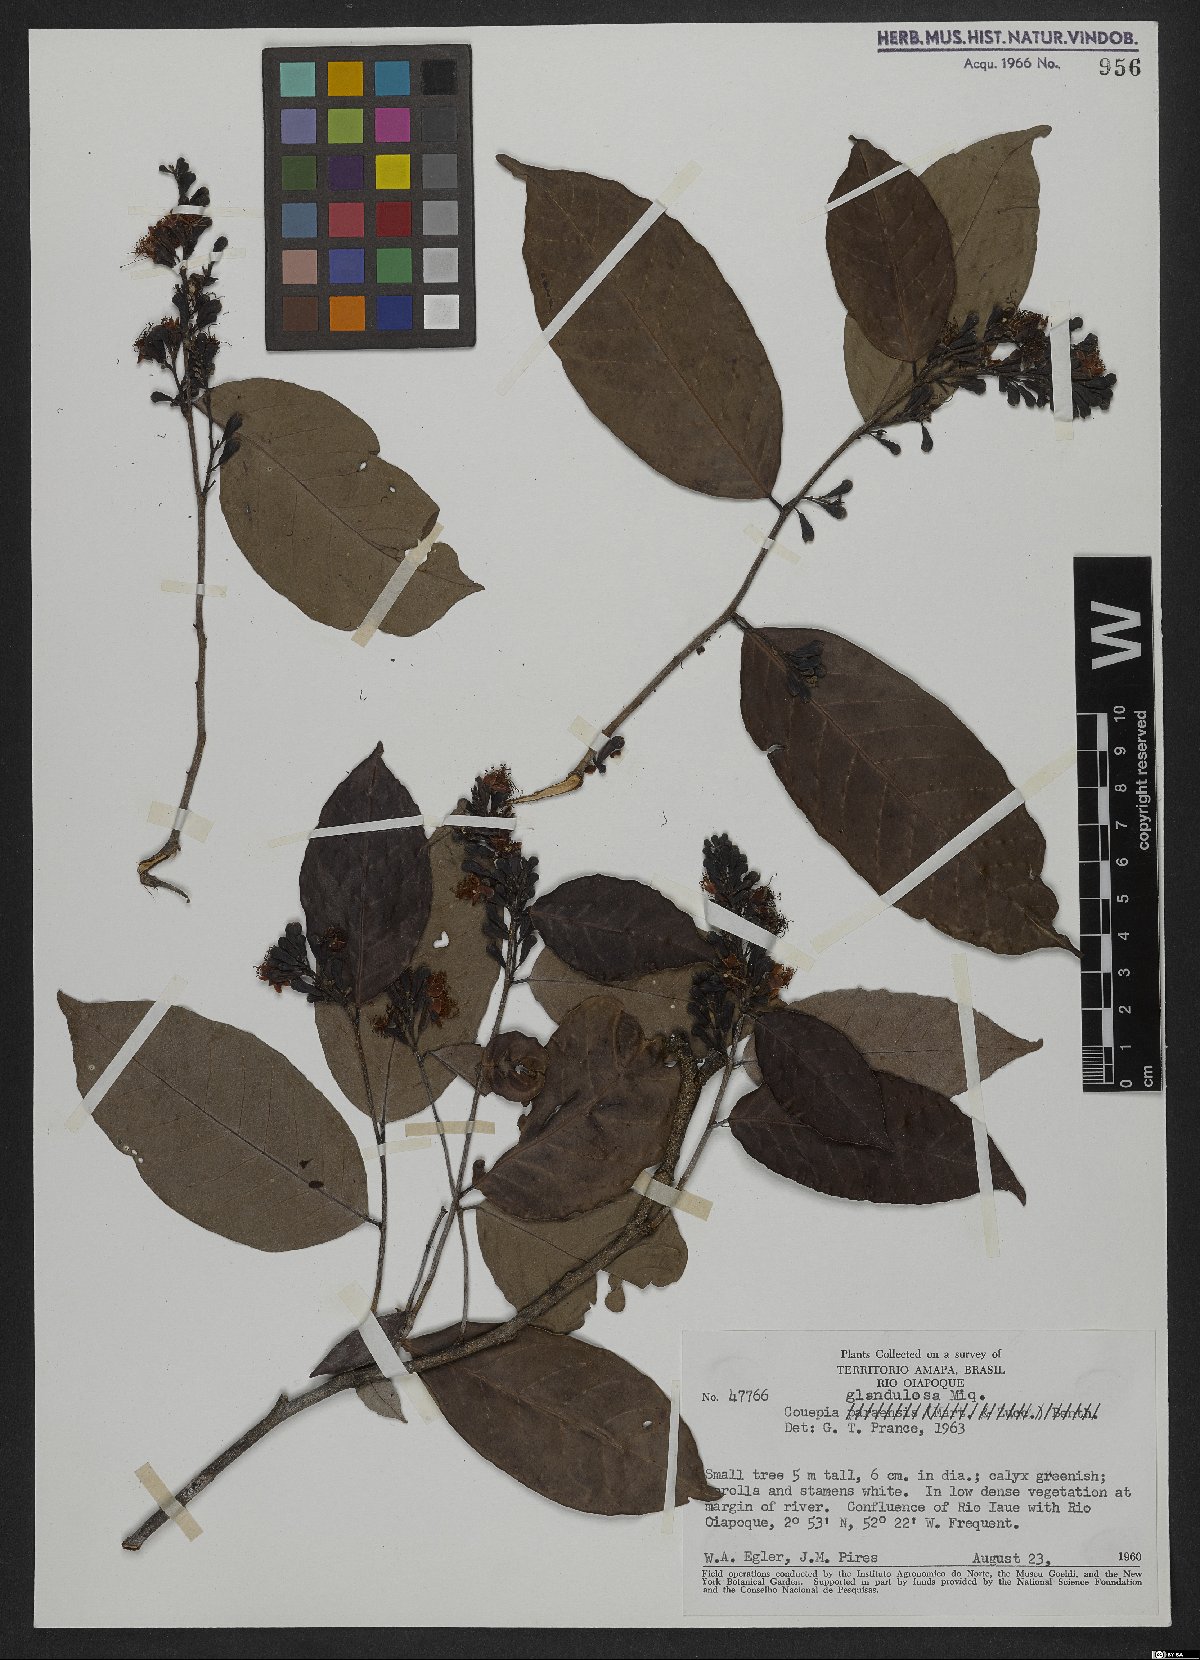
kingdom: Plantae
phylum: Tracheophyta
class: Magnoliopsida
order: Malpighiales
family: Chrysobalanaceae
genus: Couepia
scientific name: Couepia guianensis
